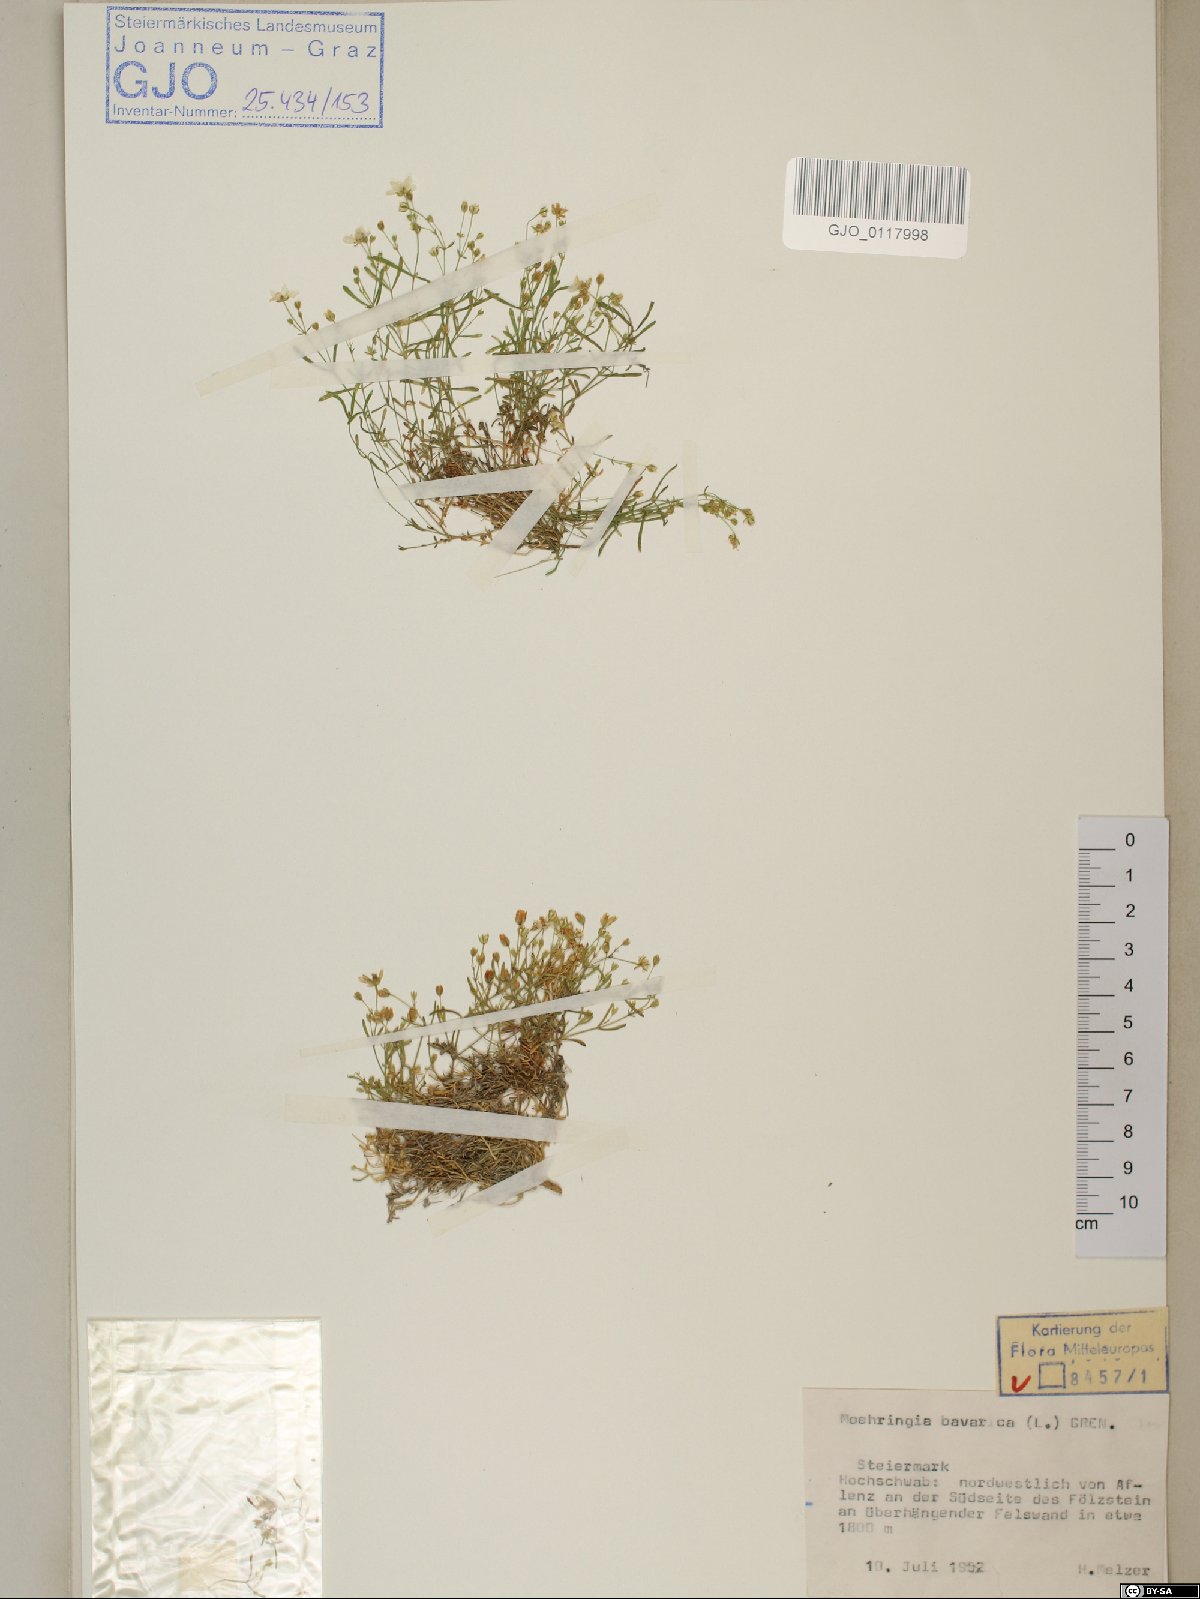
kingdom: Plantae
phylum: Tracheophyta
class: Magnoliopsida
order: Caryophyllales
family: Caryophyllaceae
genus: Moehringia
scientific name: Moehringia bavarica
